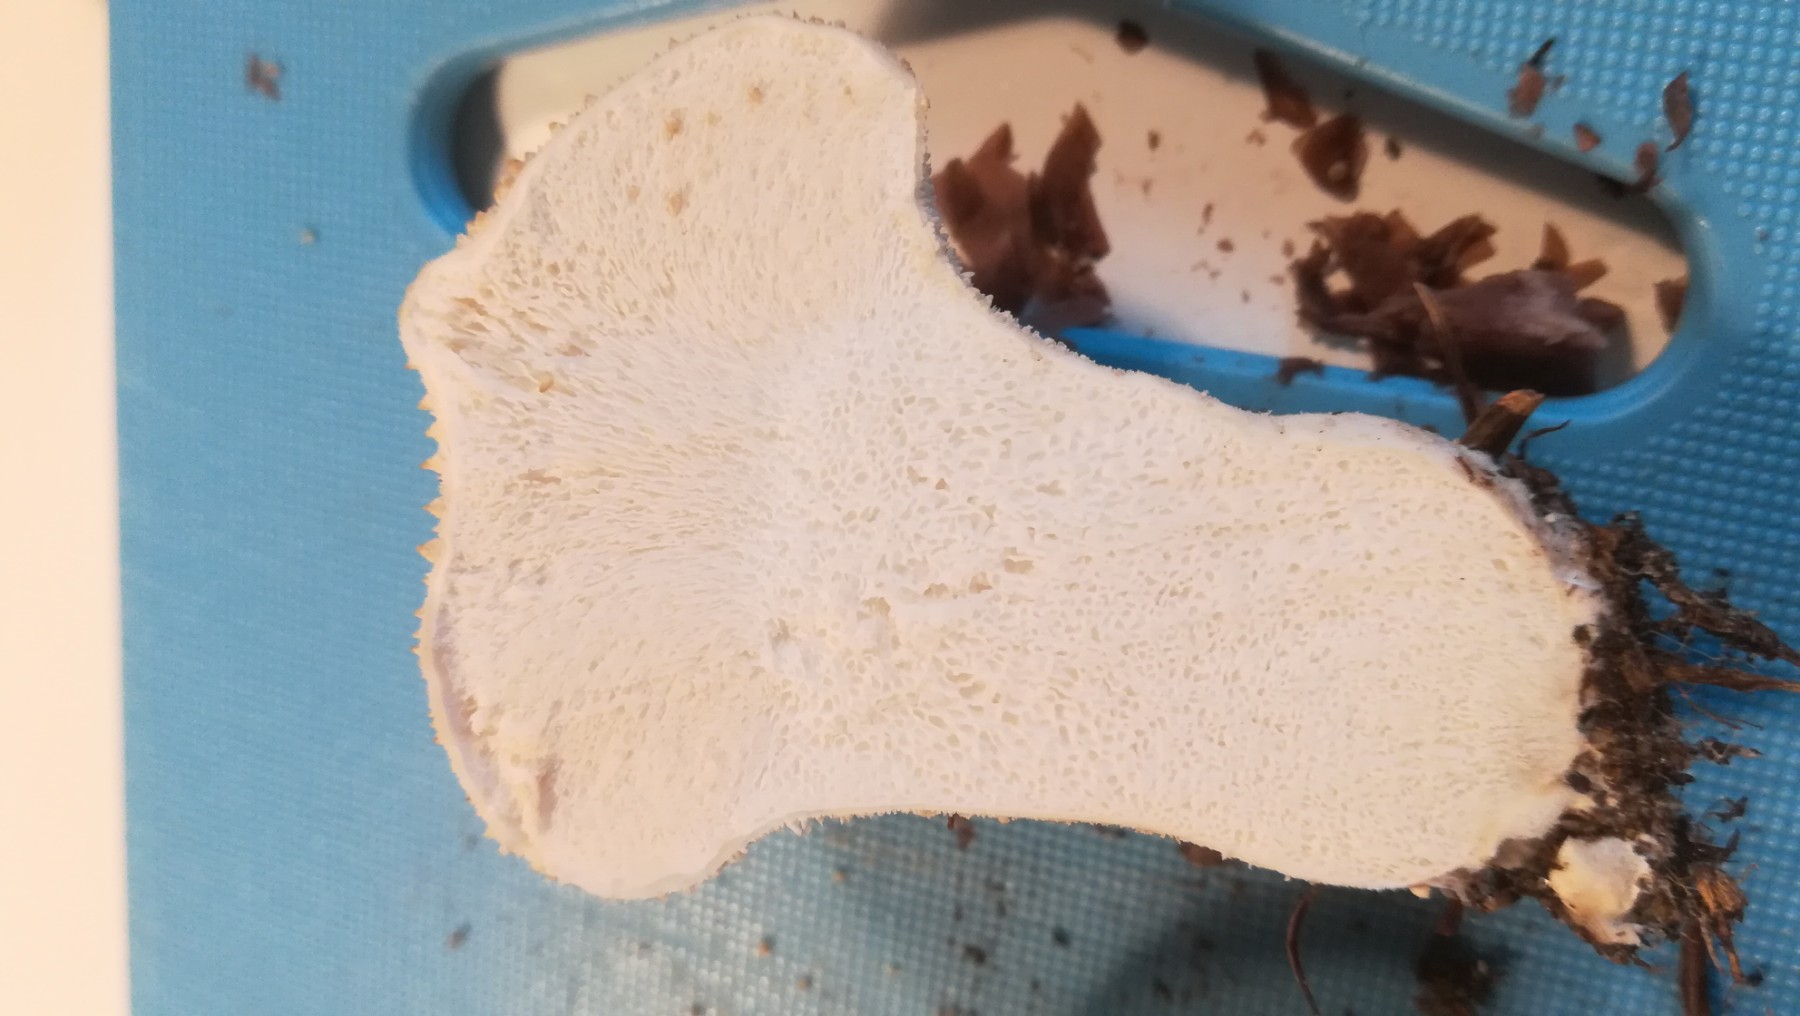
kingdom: Fungi
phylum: Basidiomycota
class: Agaricomycetes
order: Agaricales
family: Lycoperdaceae
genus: Lycoperdon
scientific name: Lycoperdon perlatum
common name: krystal-støvbold
